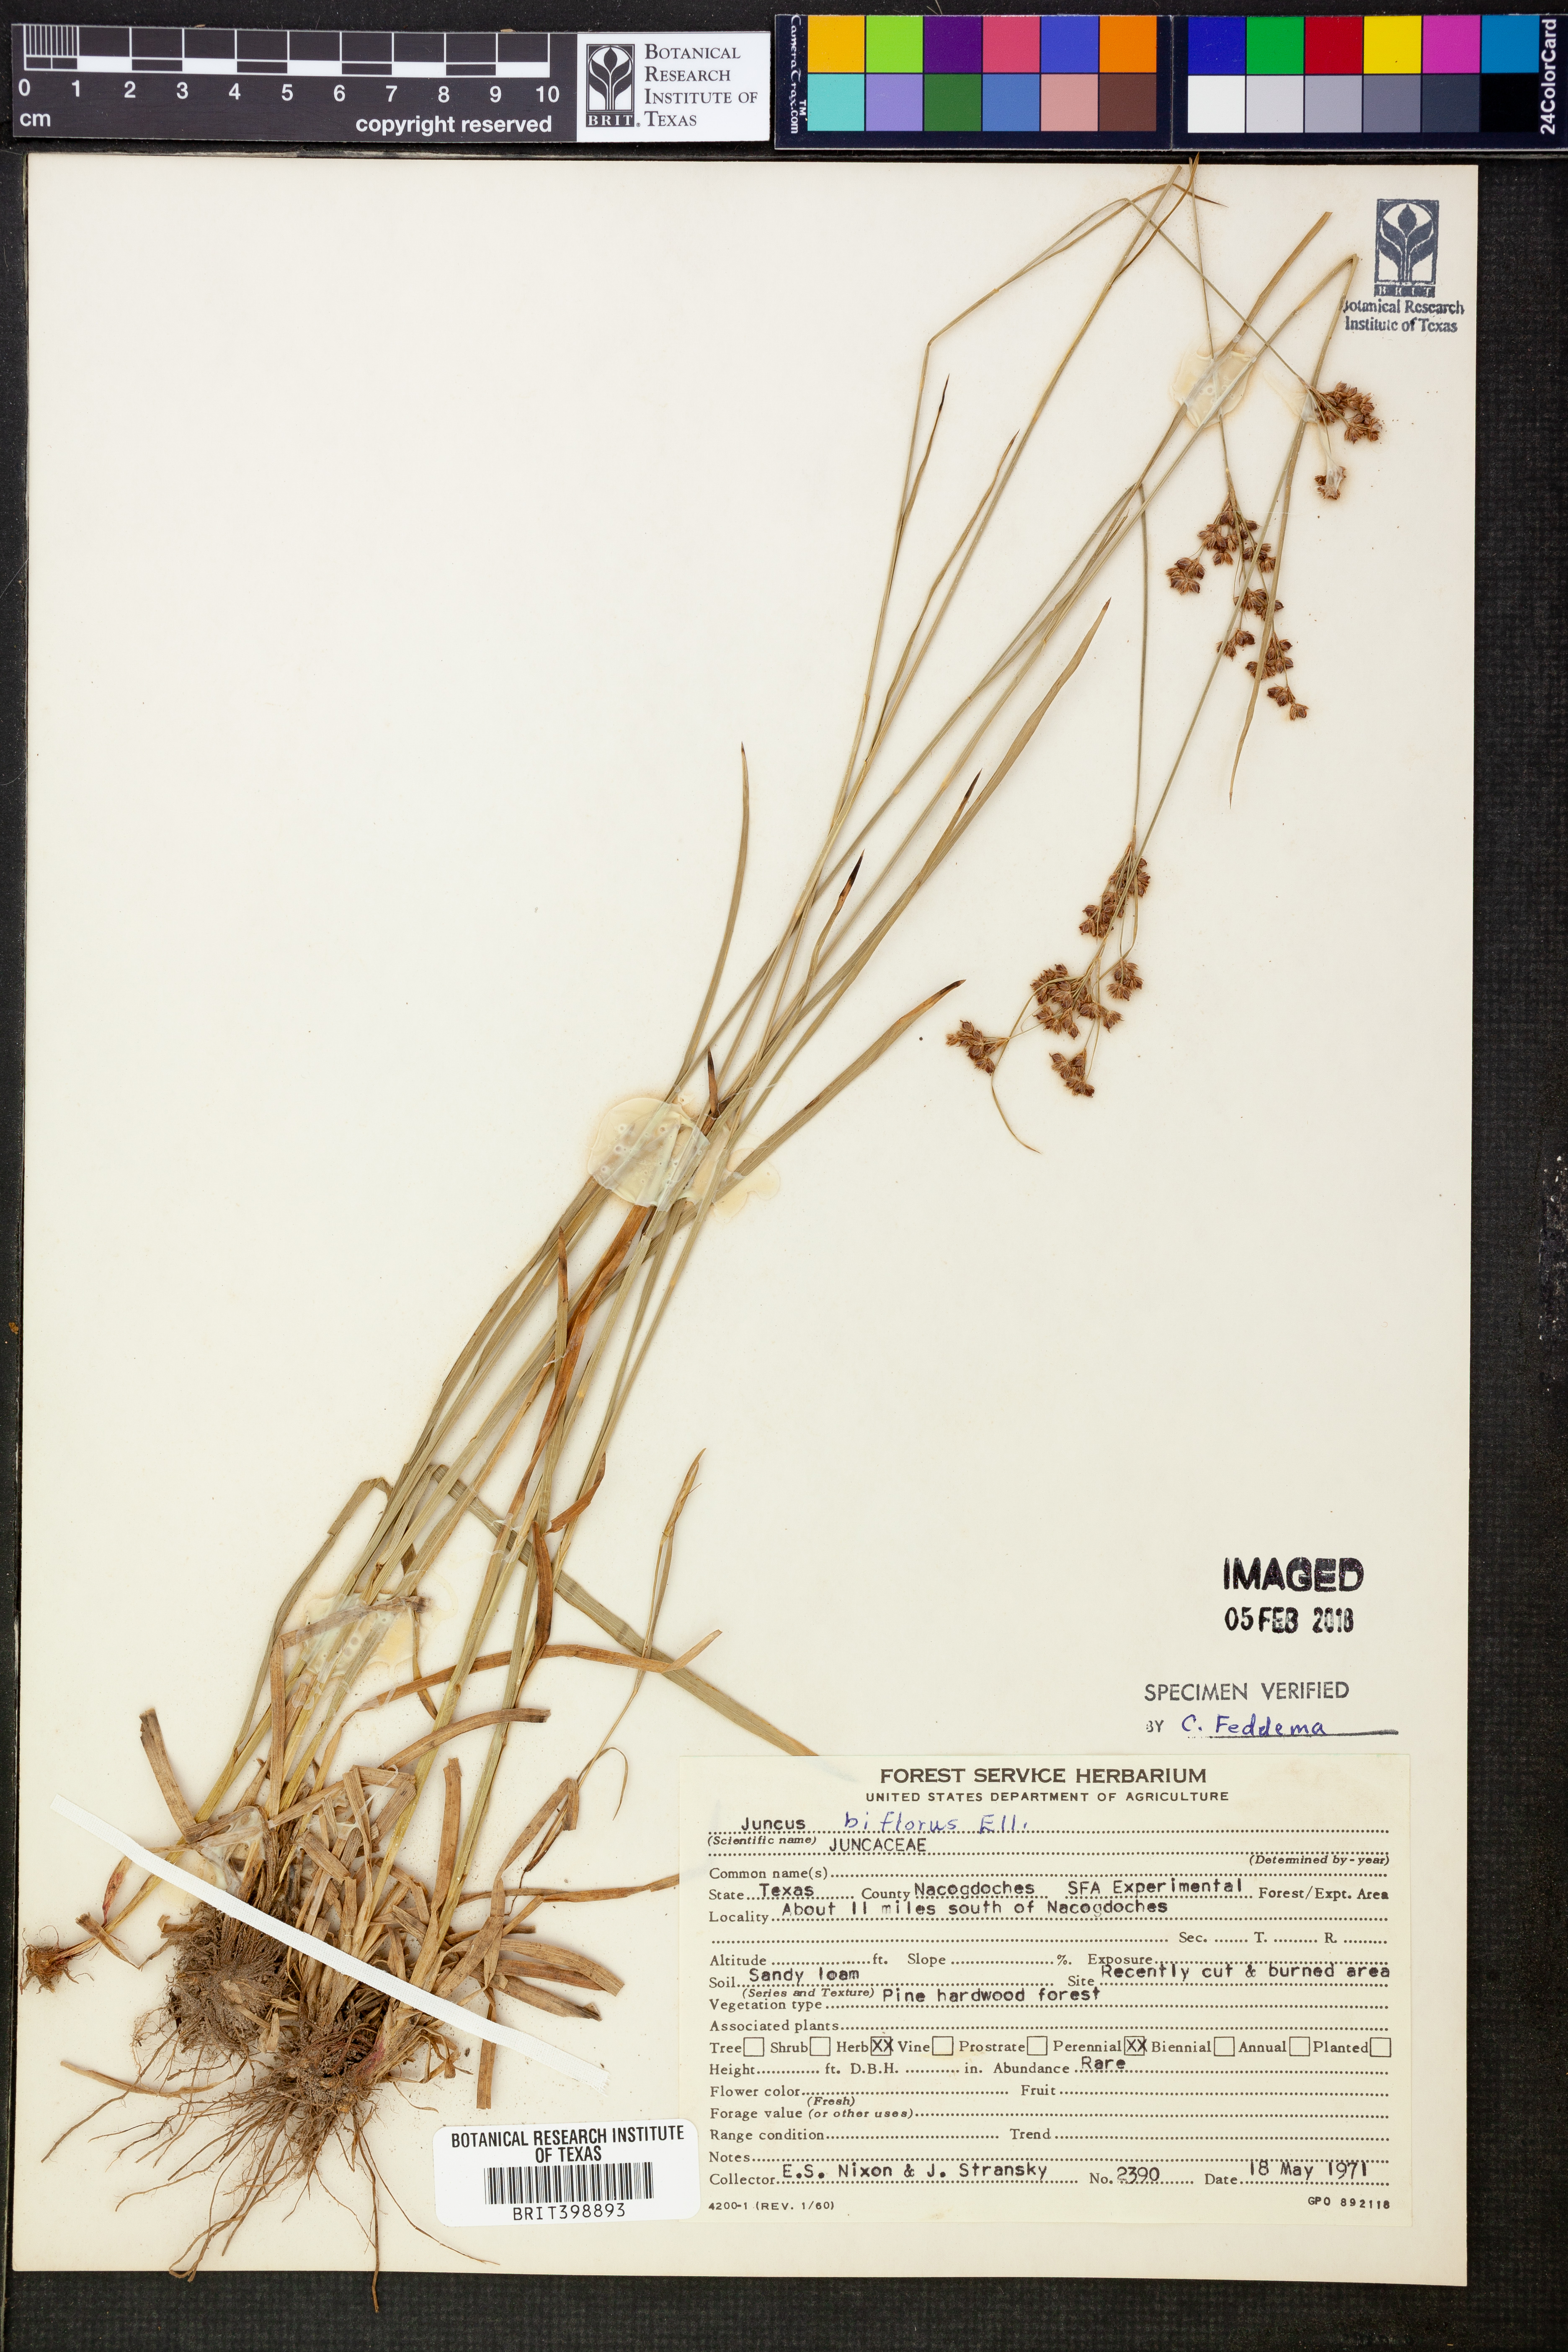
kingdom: Plantae
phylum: Tracheophyta
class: Liliopsida
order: Poales
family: Juncaceae
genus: Juncus
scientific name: Juncus biflorus
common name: Two-flowered rush
